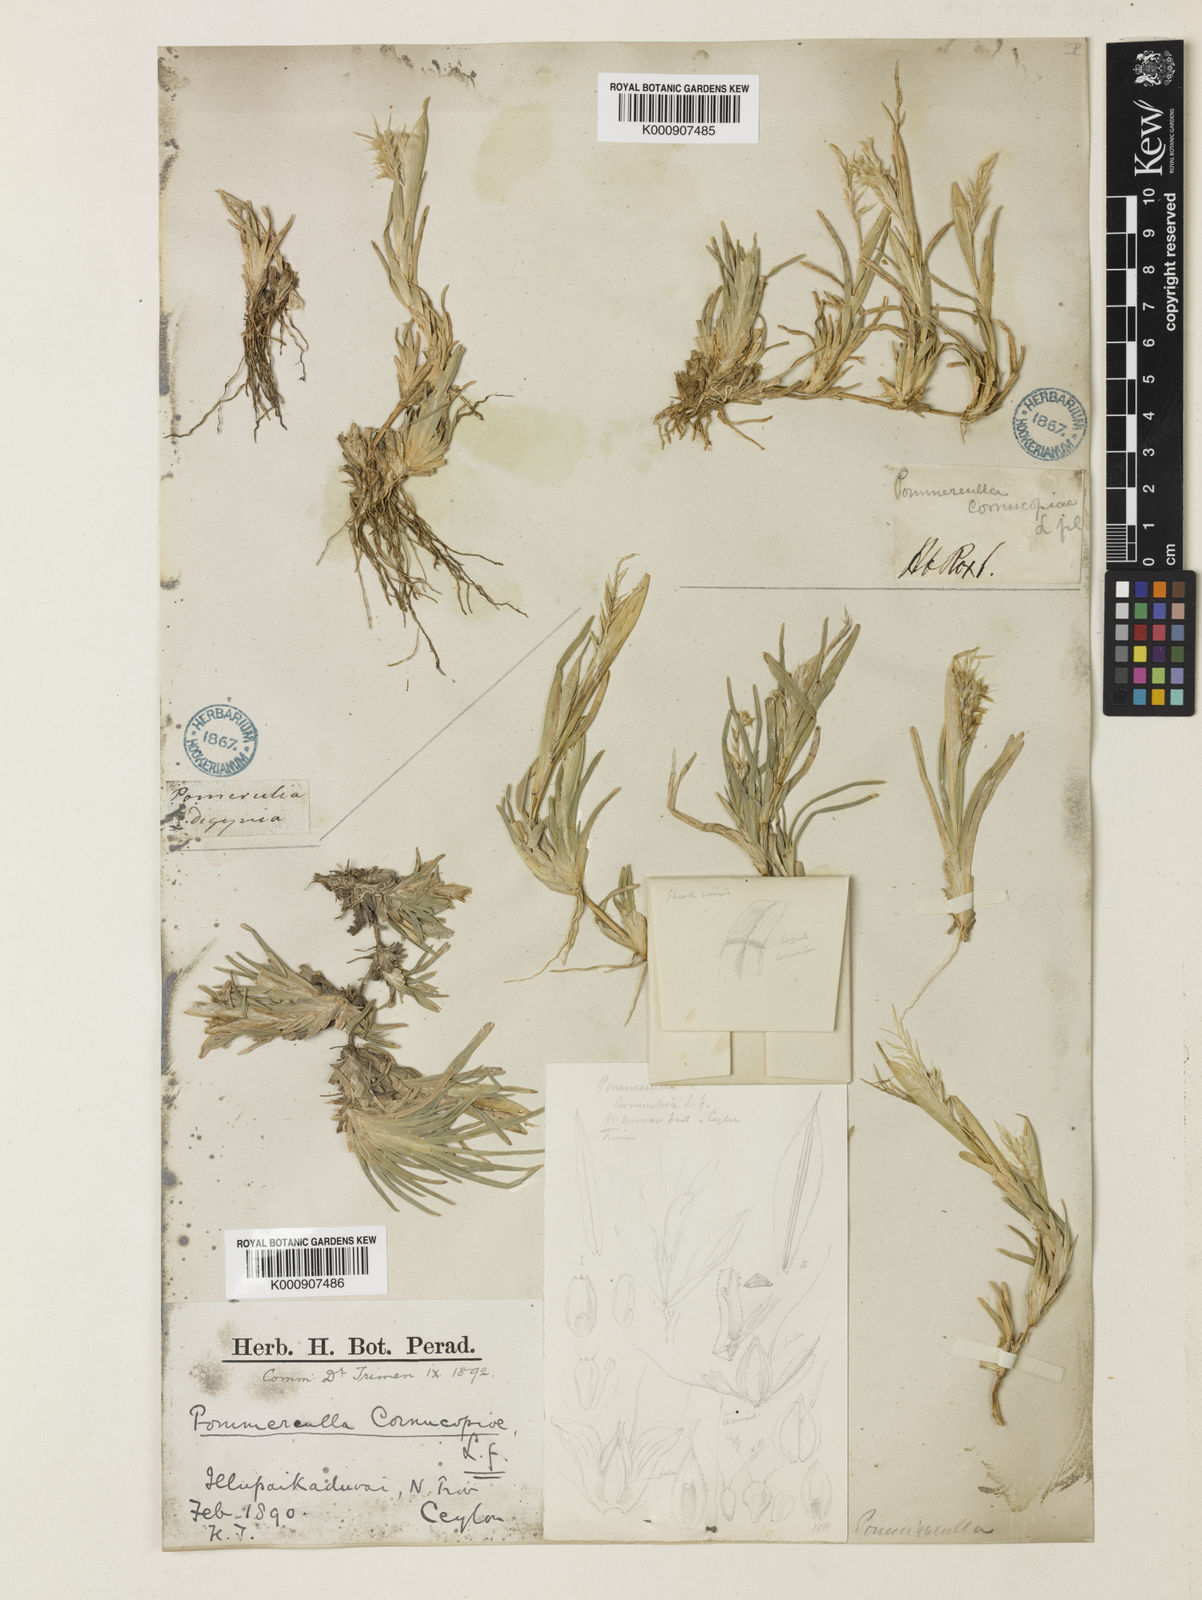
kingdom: Plantae
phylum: Tracheophyta
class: Liliopsida
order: Poales
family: Poaceae
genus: Pommereulla
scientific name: Pommereulla cornucopiae
